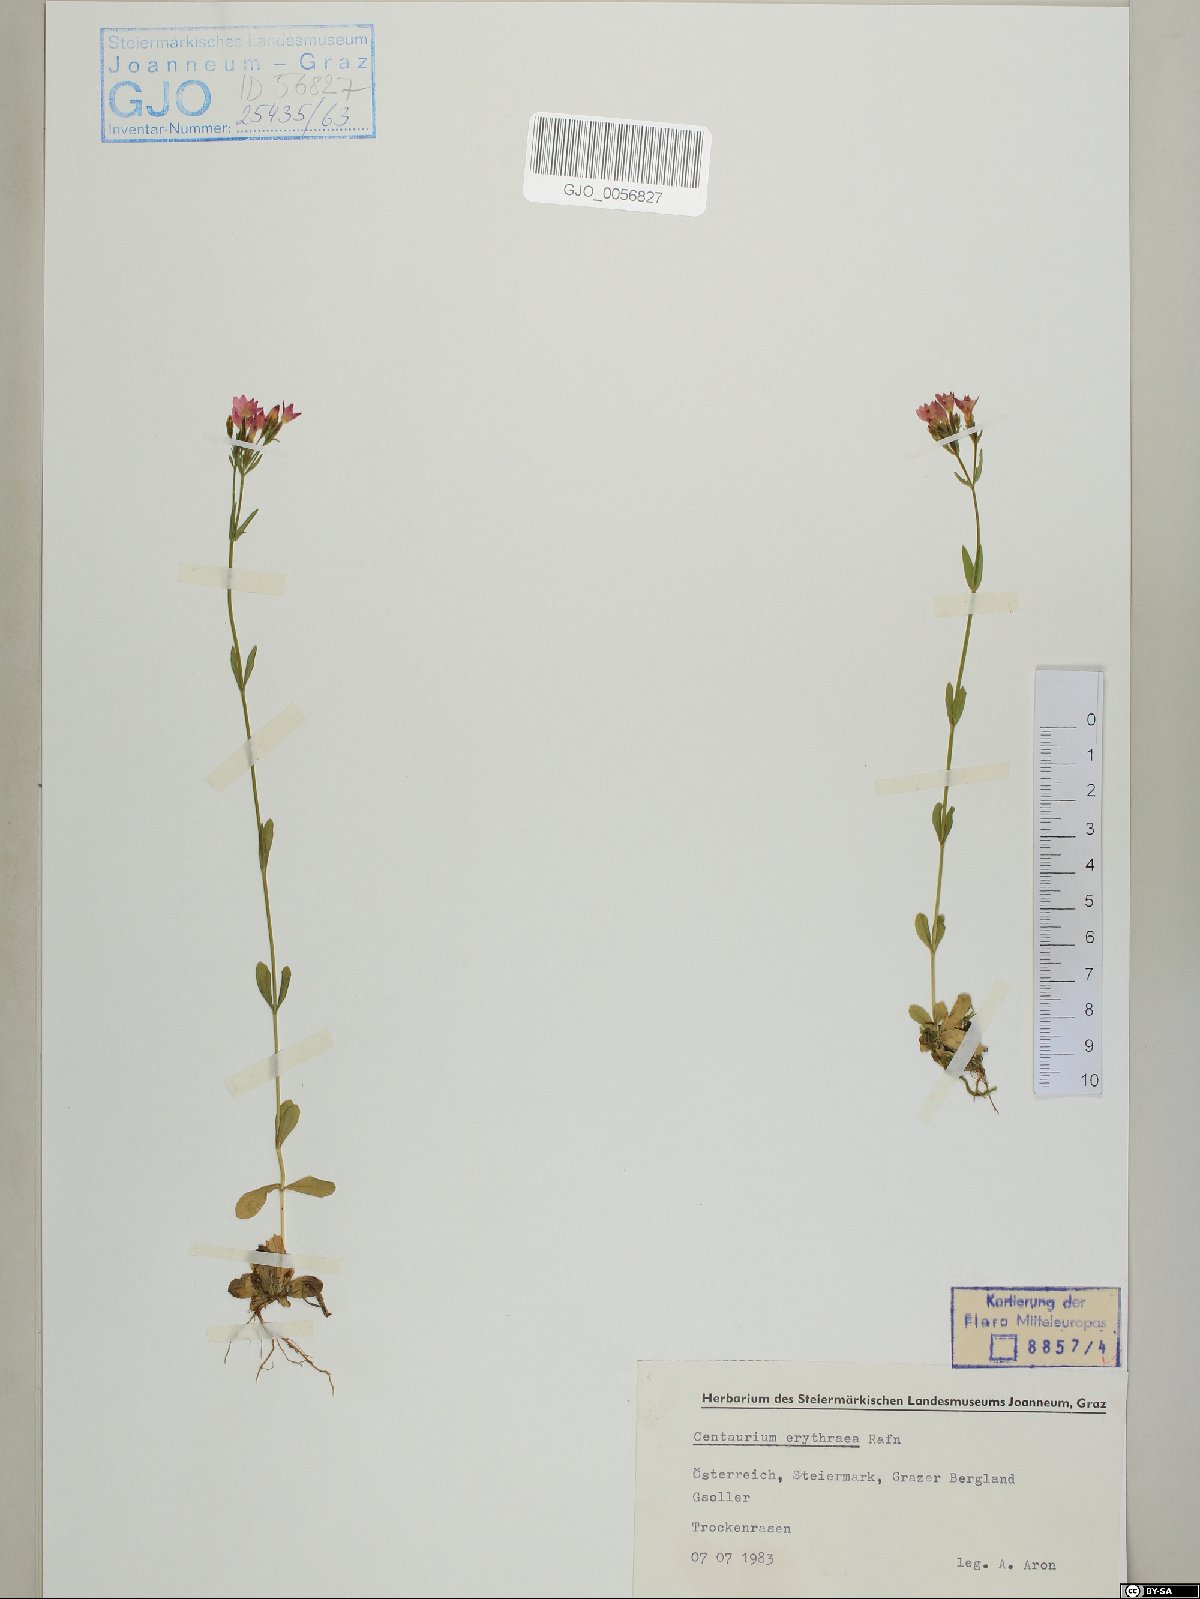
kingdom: Plantae
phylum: Tracheophyta
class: Magnoliopsida
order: Asterales
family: Asteraceae
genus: Carlina
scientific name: Carlina acaulis
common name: Stemless carline thistle
